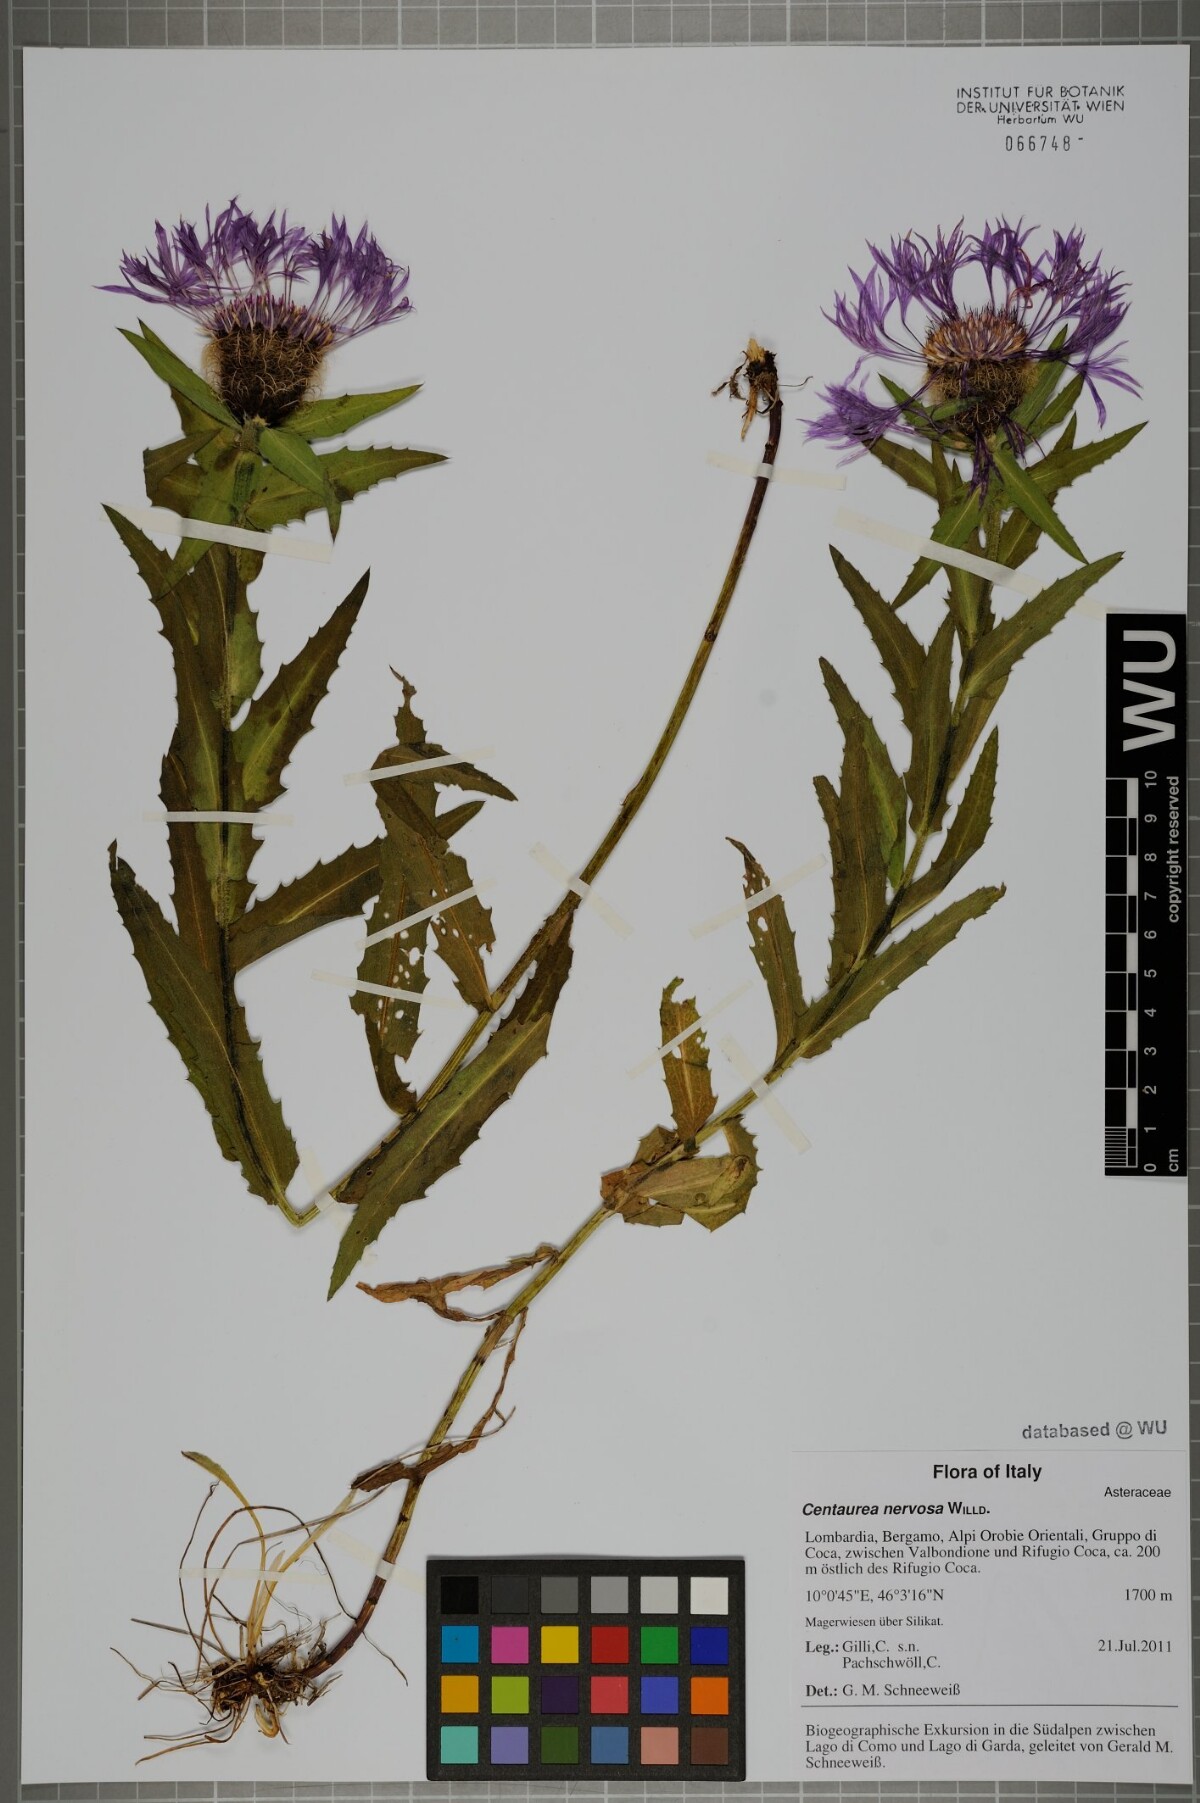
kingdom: Plantae
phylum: Tracheophyta
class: Magnoliopsida
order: Asterales
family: Asteraceae
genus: Centaurea
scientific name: Centaurea nervosa
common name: Singleflower knapweed
